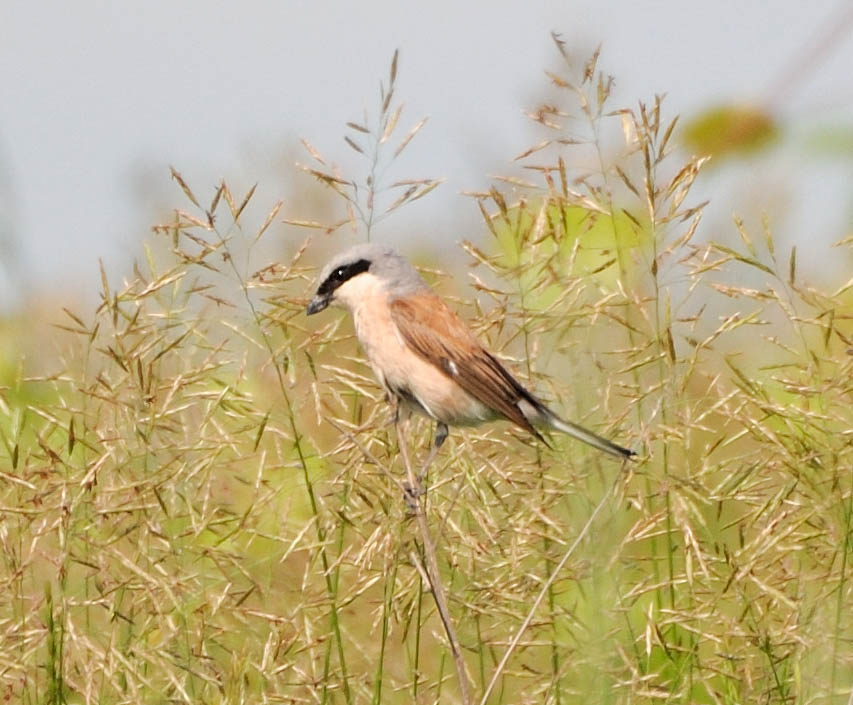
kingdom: Animalia
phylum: Chordata
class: Aves
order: Passeriformes
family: Laniidae
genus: Lanius
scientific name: Lanius collurio
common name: Red-backed shrike
